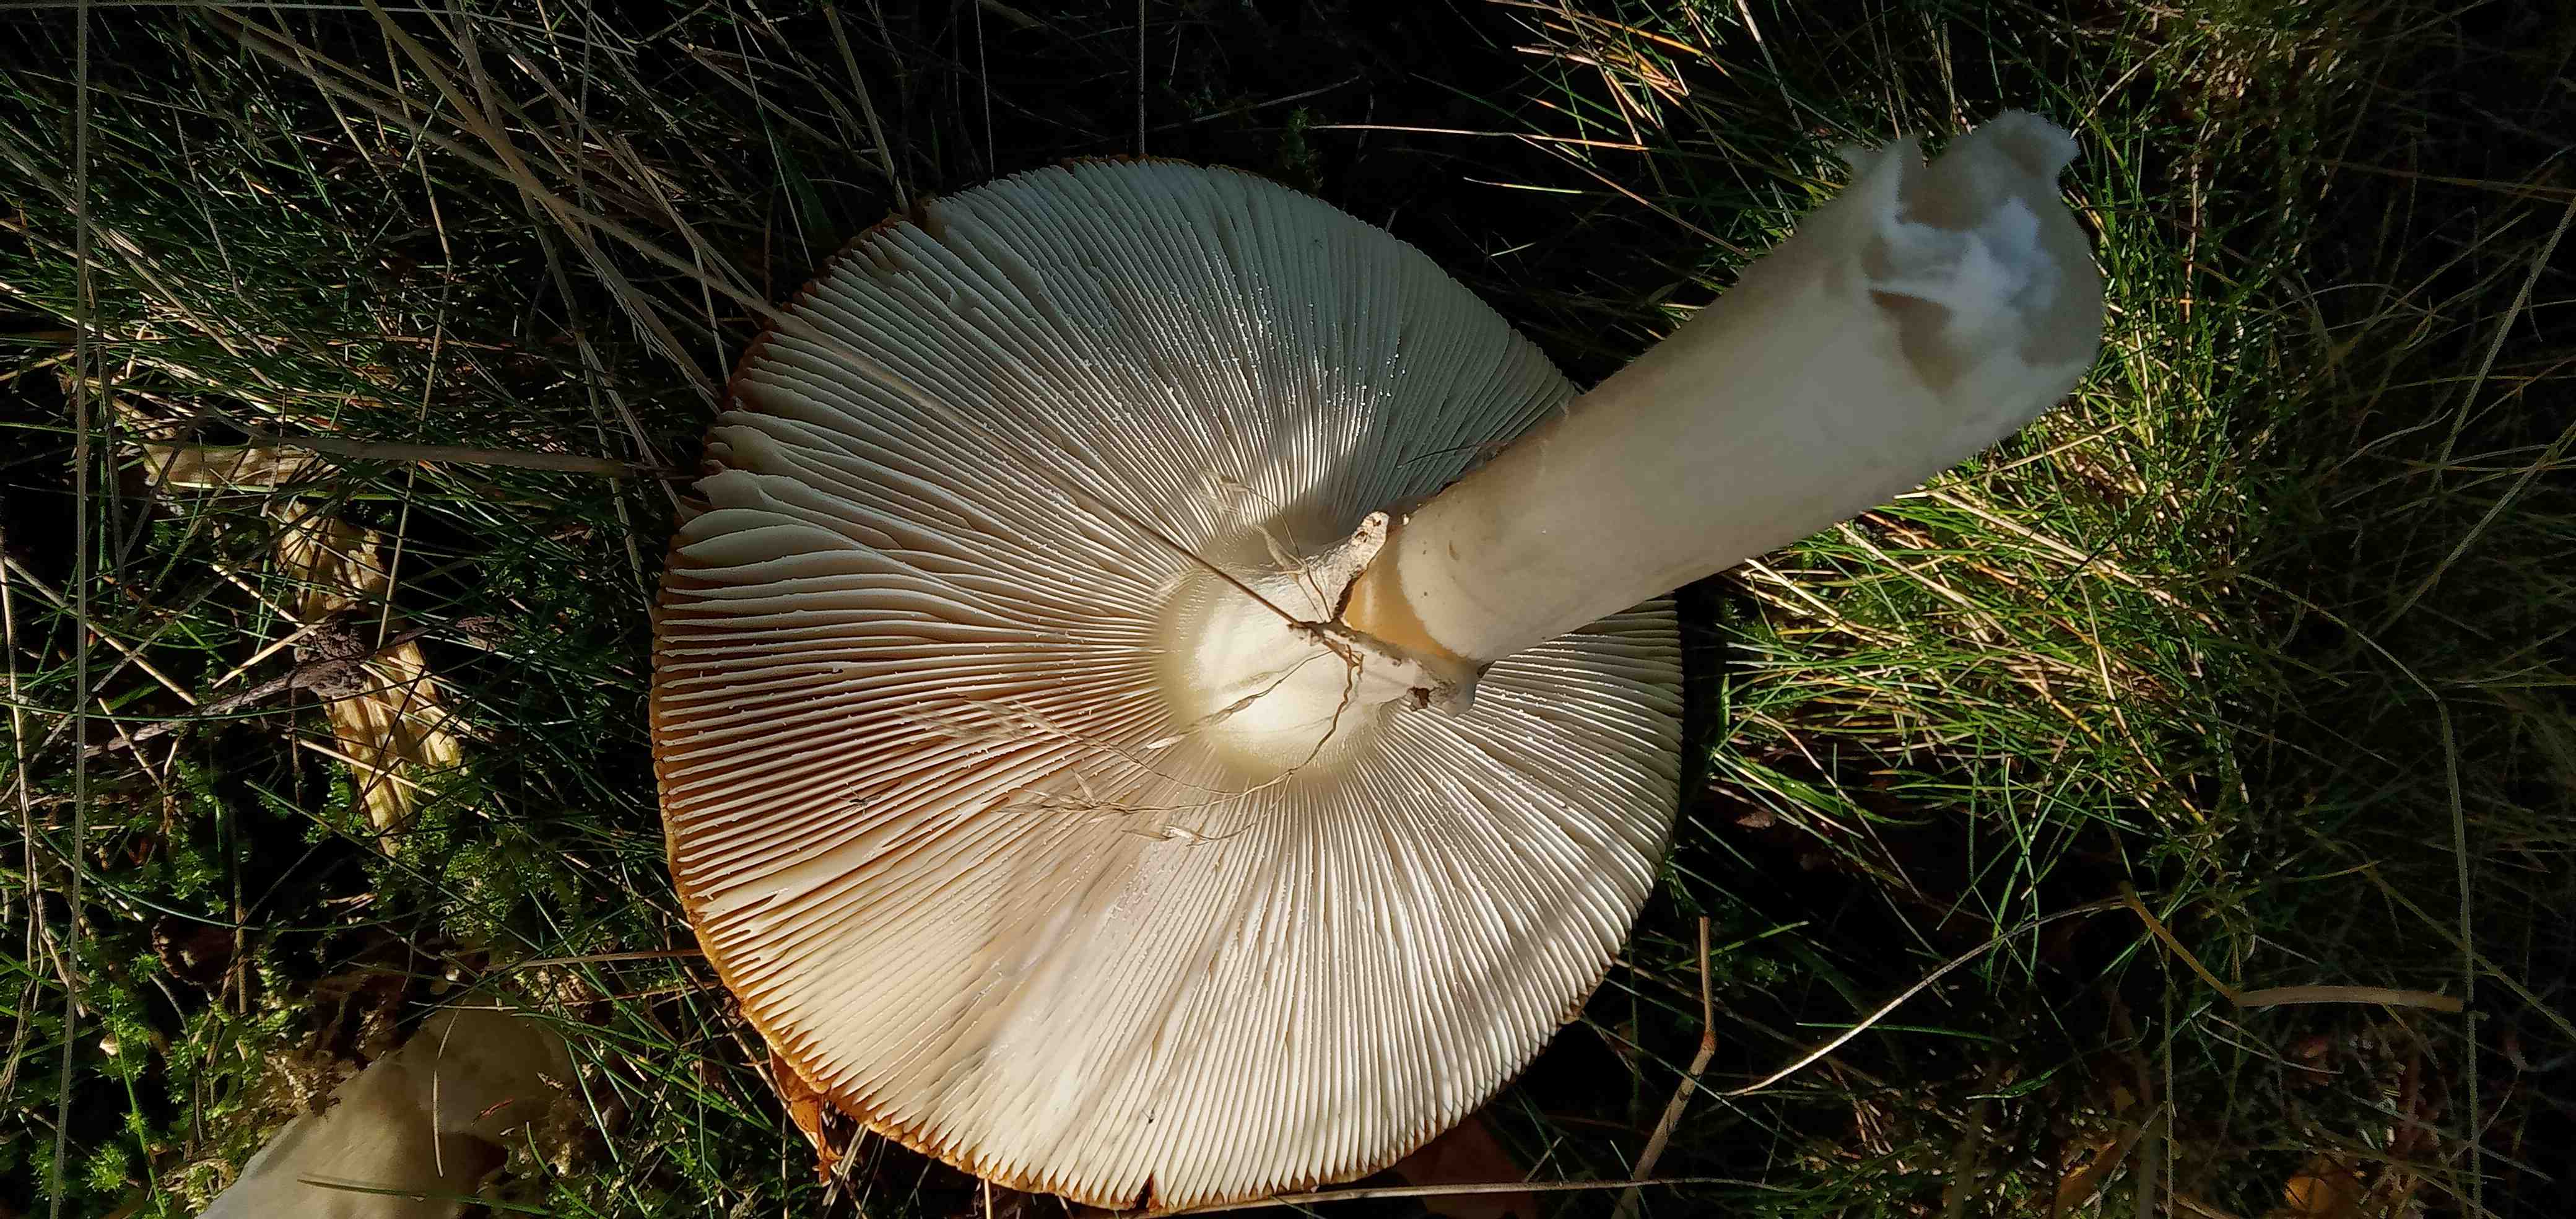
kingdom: Fungi
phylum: Basidiomycota
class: Agaricomycetes
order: Agaricales
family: Amanitaceae
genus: Amanita
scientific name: Amanita muscaria
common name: rød fluesvamp
